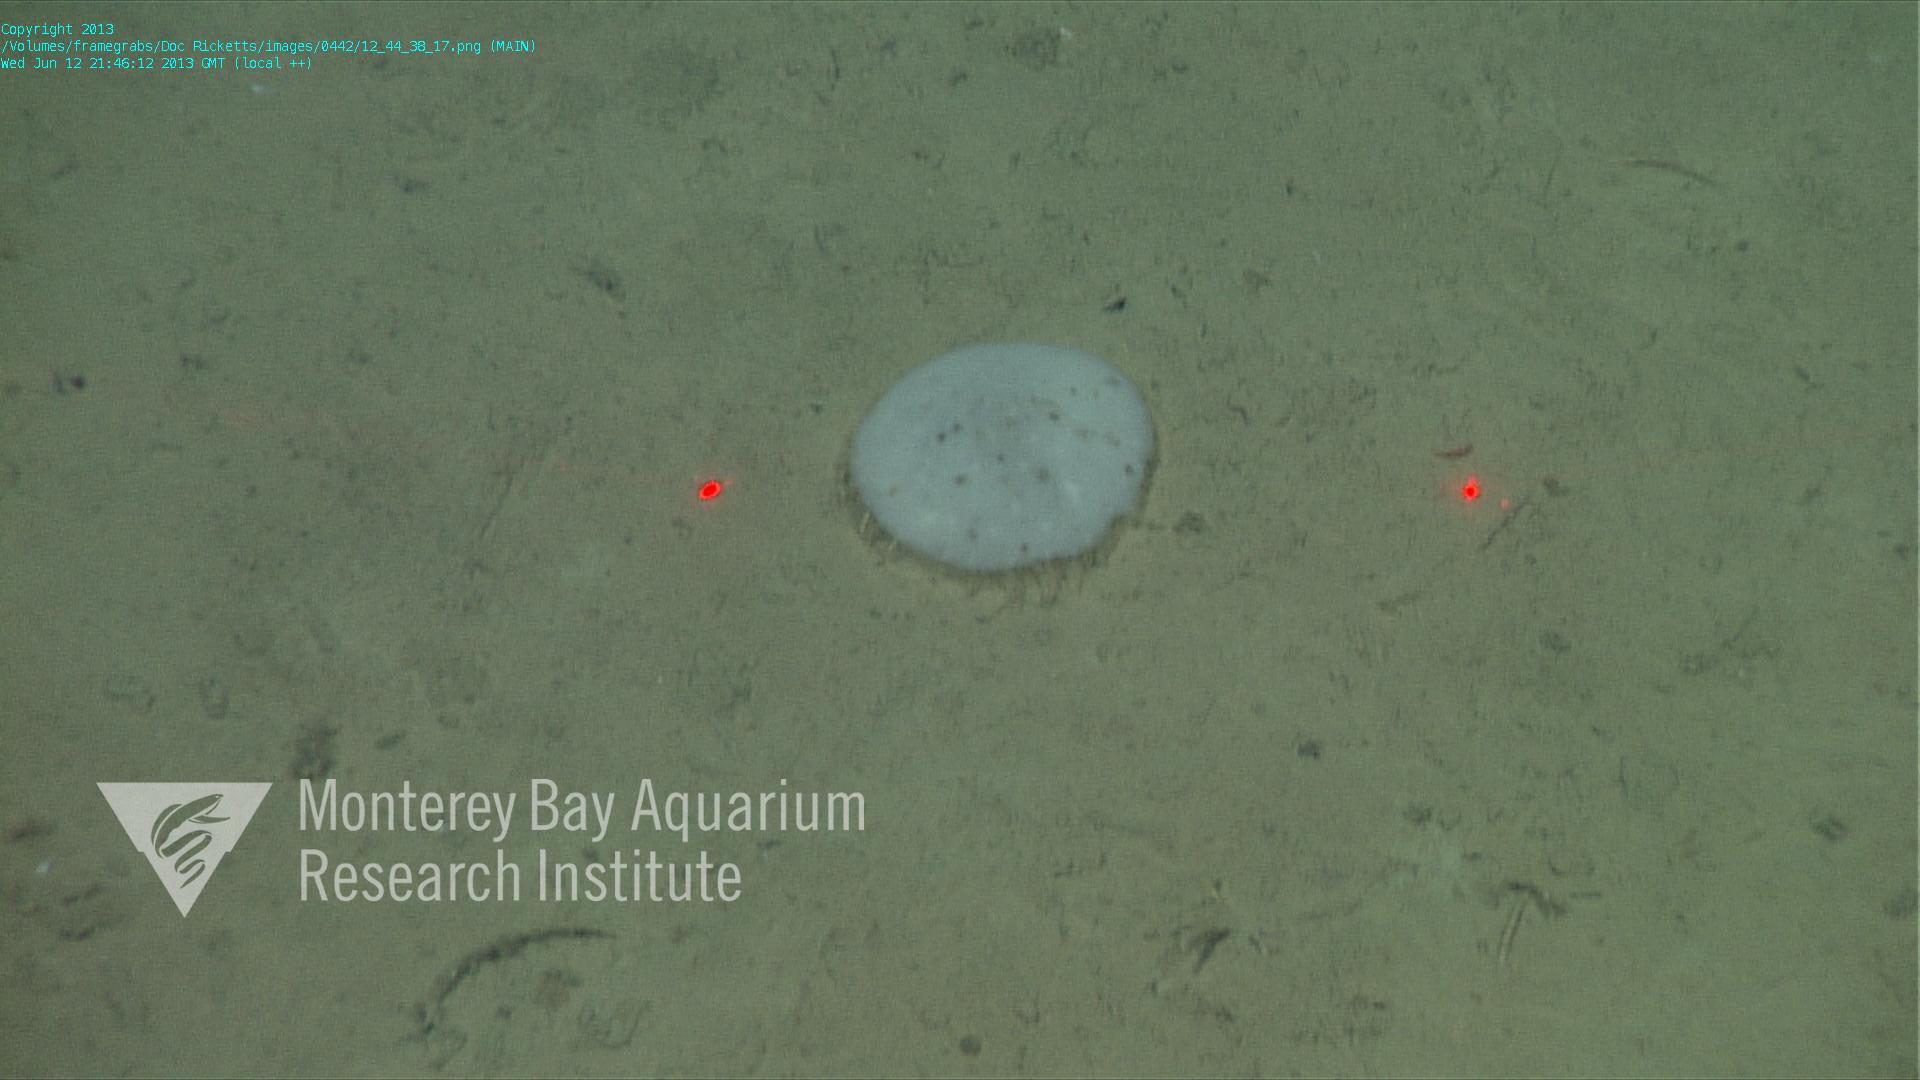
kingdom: Animalia
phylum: Porifera
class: Hexactinellida
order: Lyssacinosida
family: Euplectellidae
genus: Docosaccus
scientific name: Docosaccus maculatus
